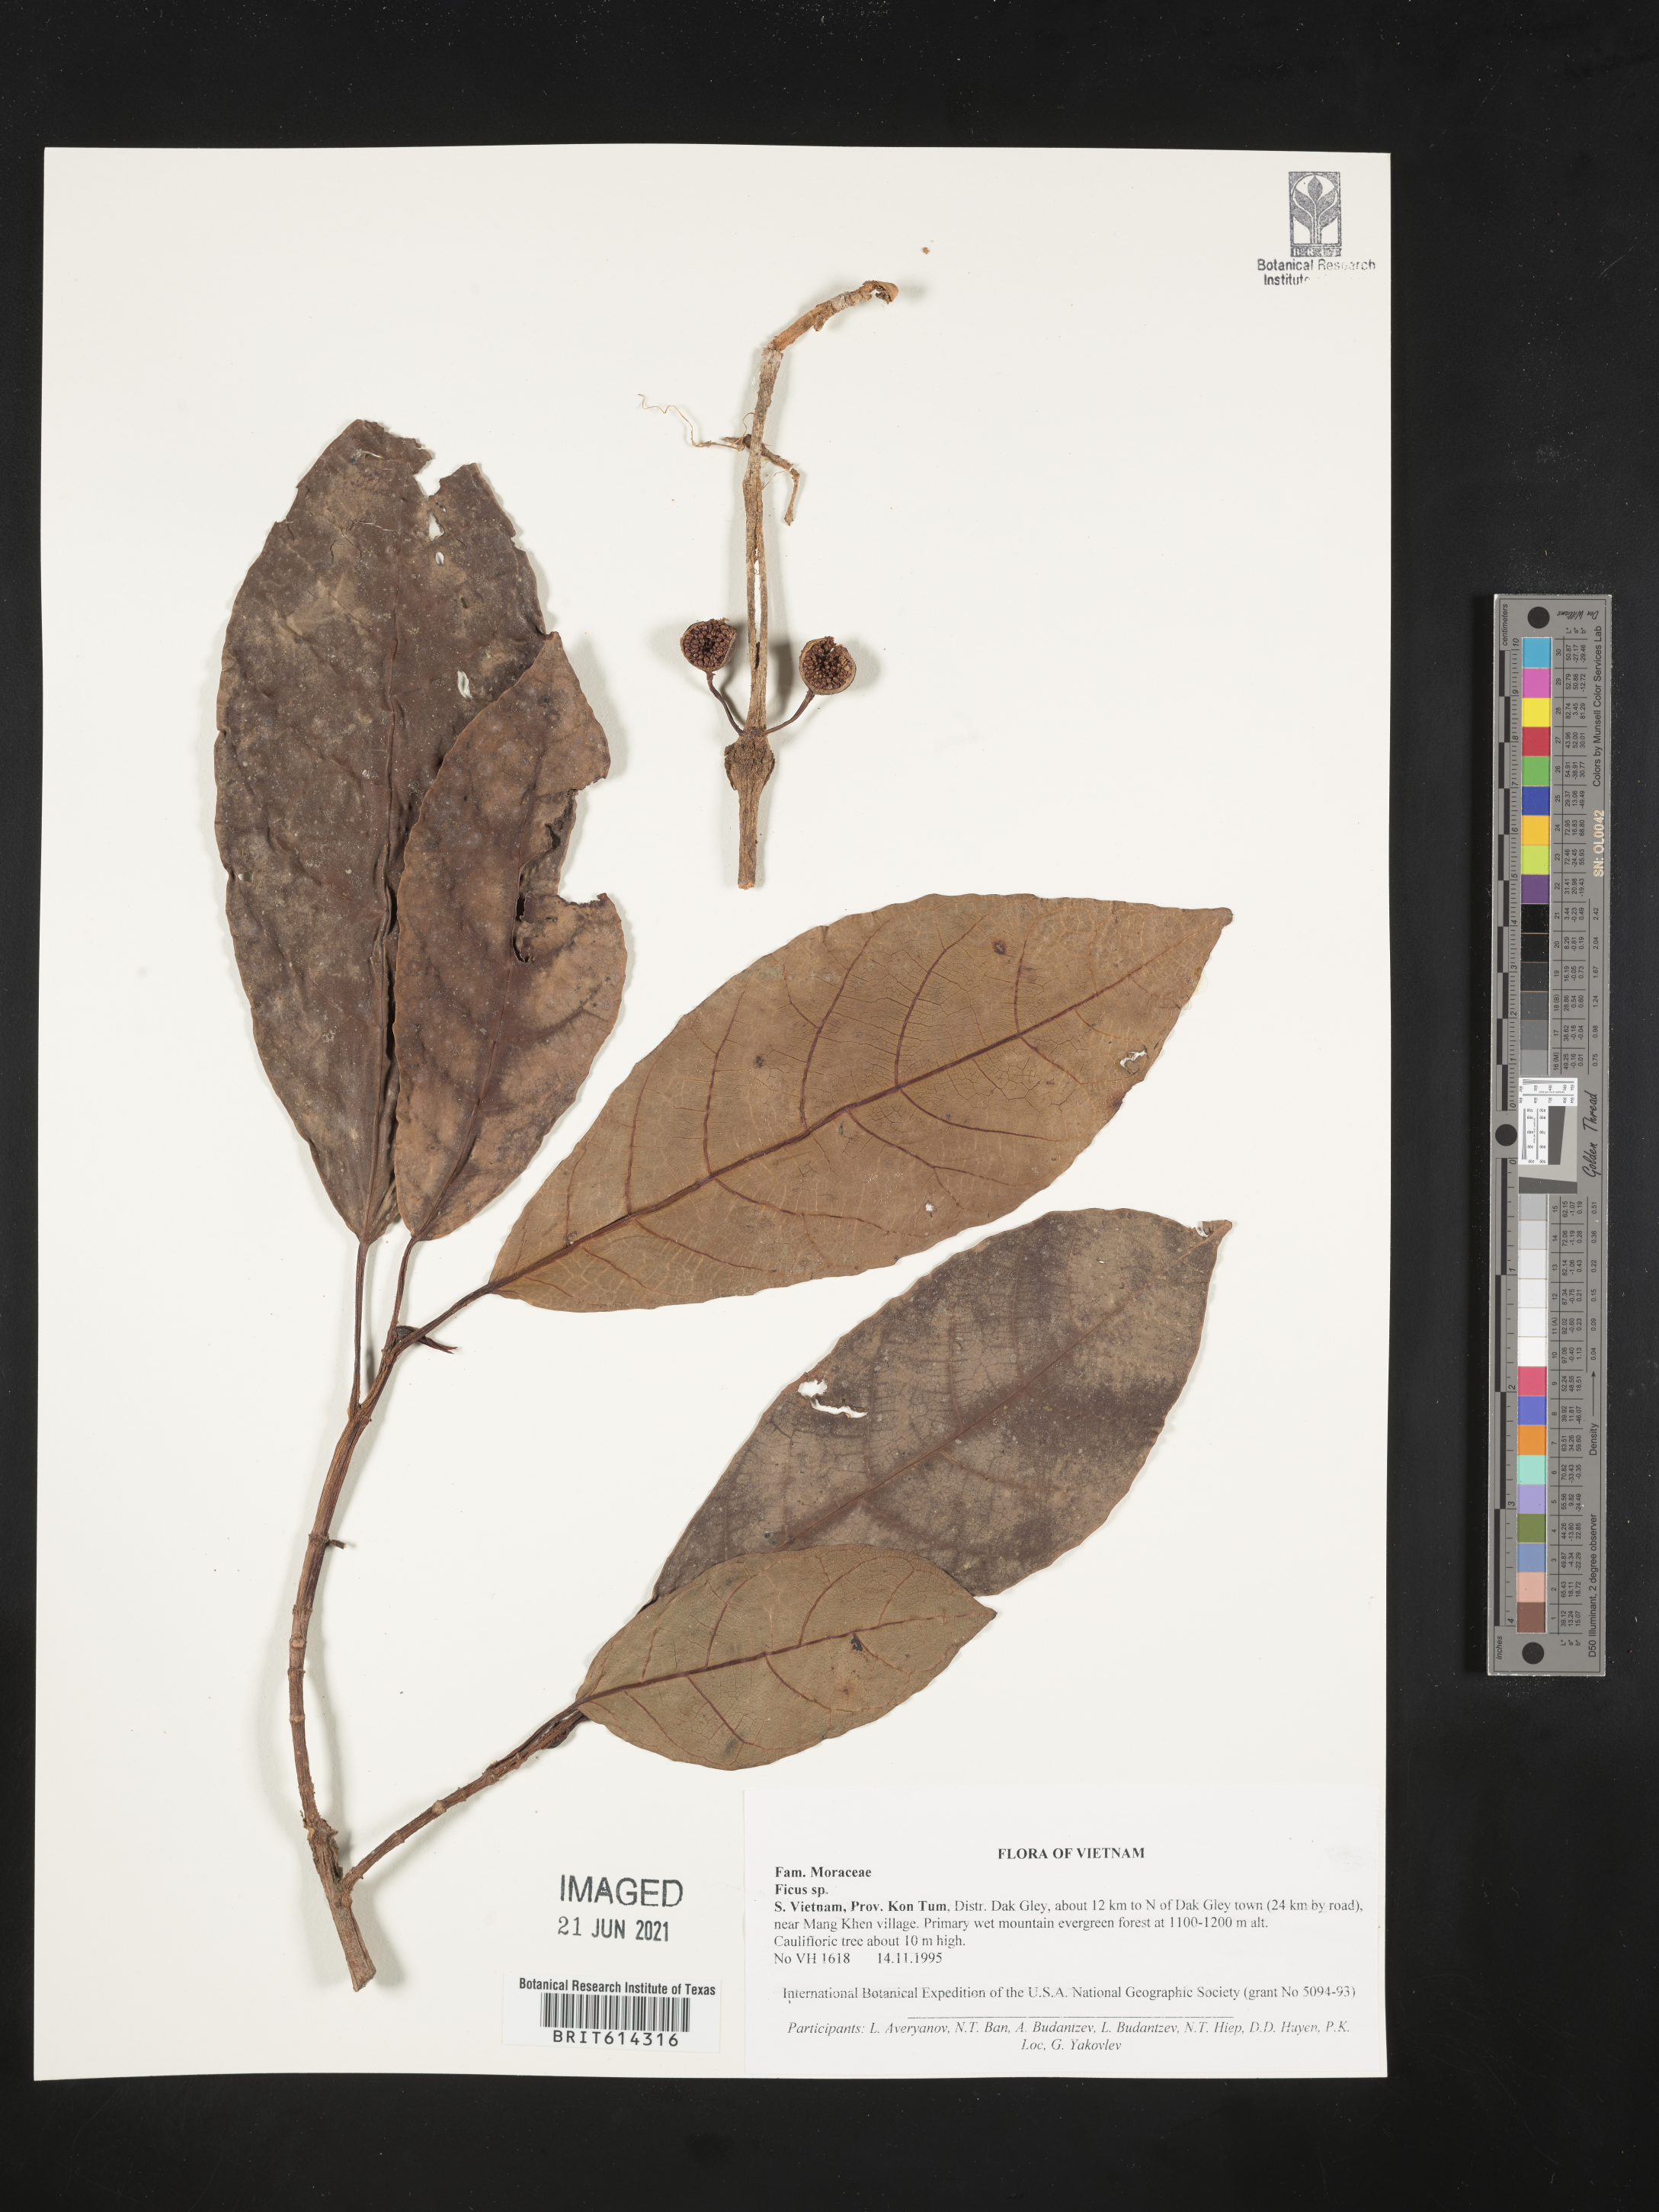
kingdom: Plantae
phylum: Tracheophyta
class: Magnoliopsida
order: Rosales
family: Moraceae
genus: Ficus
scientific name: Ficus
